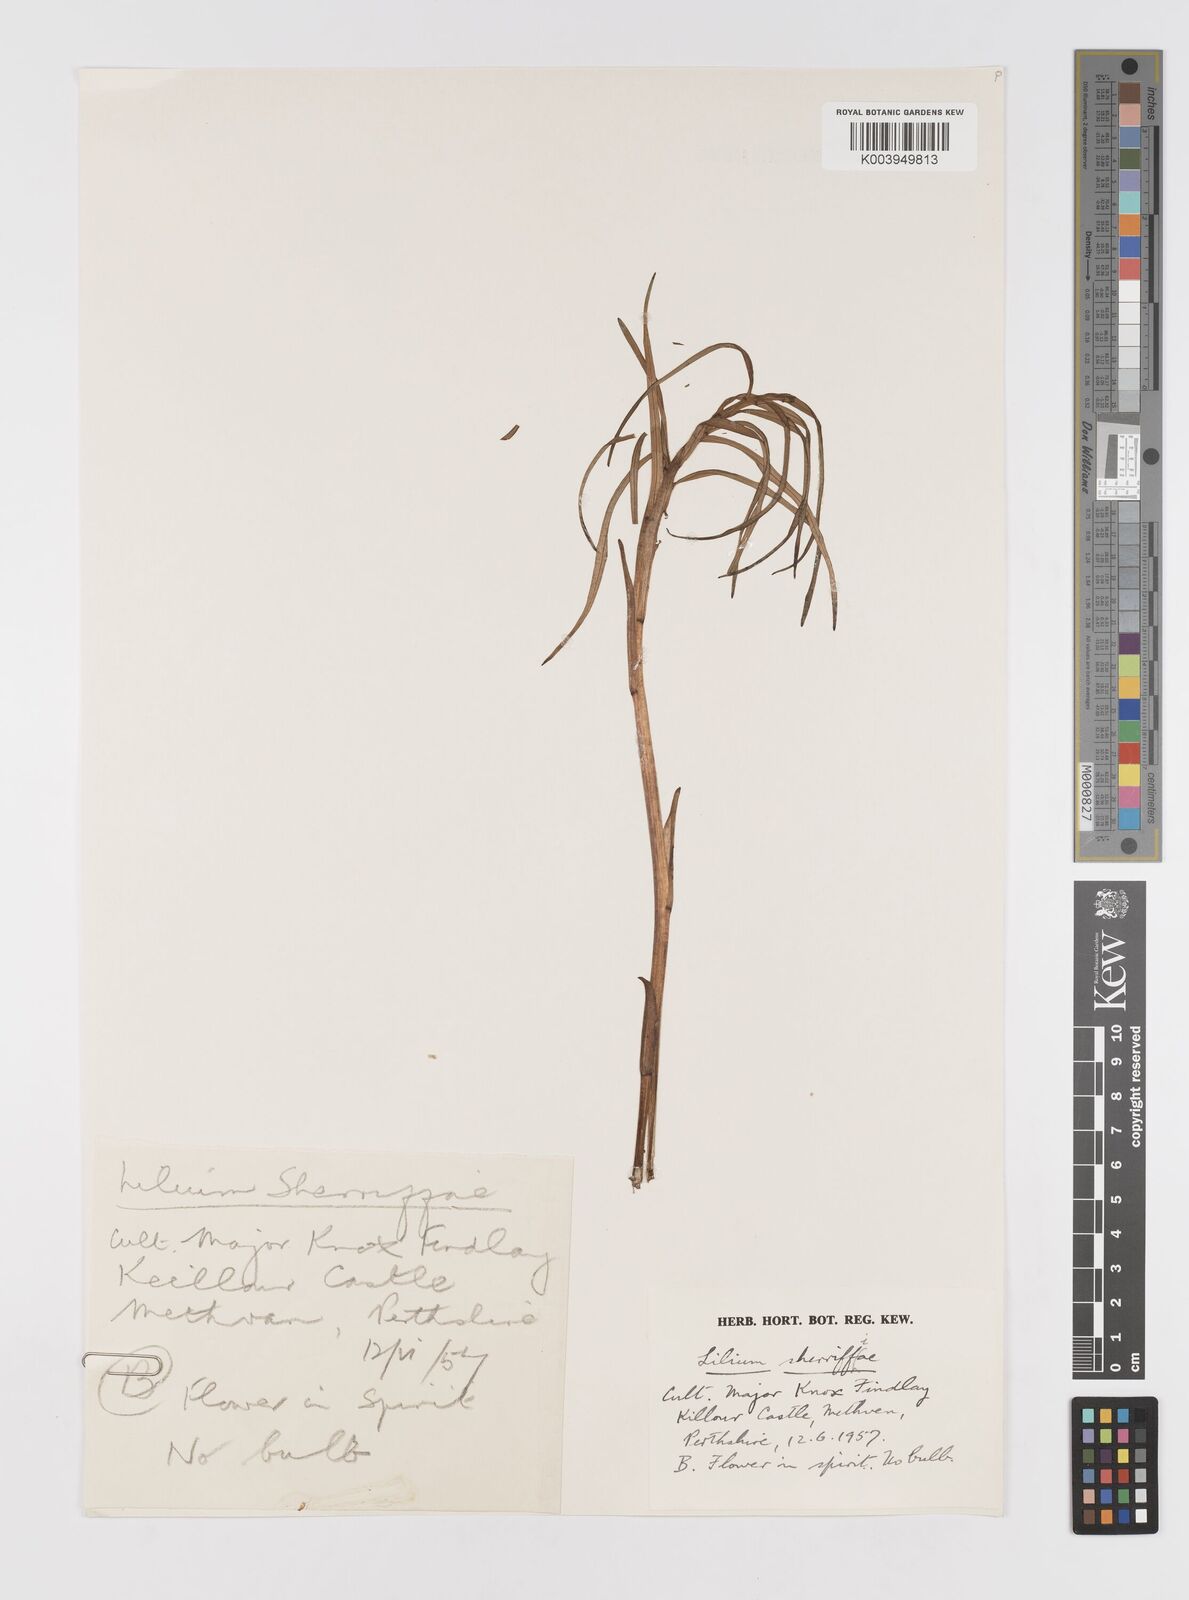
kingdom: Plantae
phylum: Tracheophyta
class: Liliopsida
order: Liliales
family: Liliaceae
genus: Lilium
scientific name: Lilium sherriffiae
